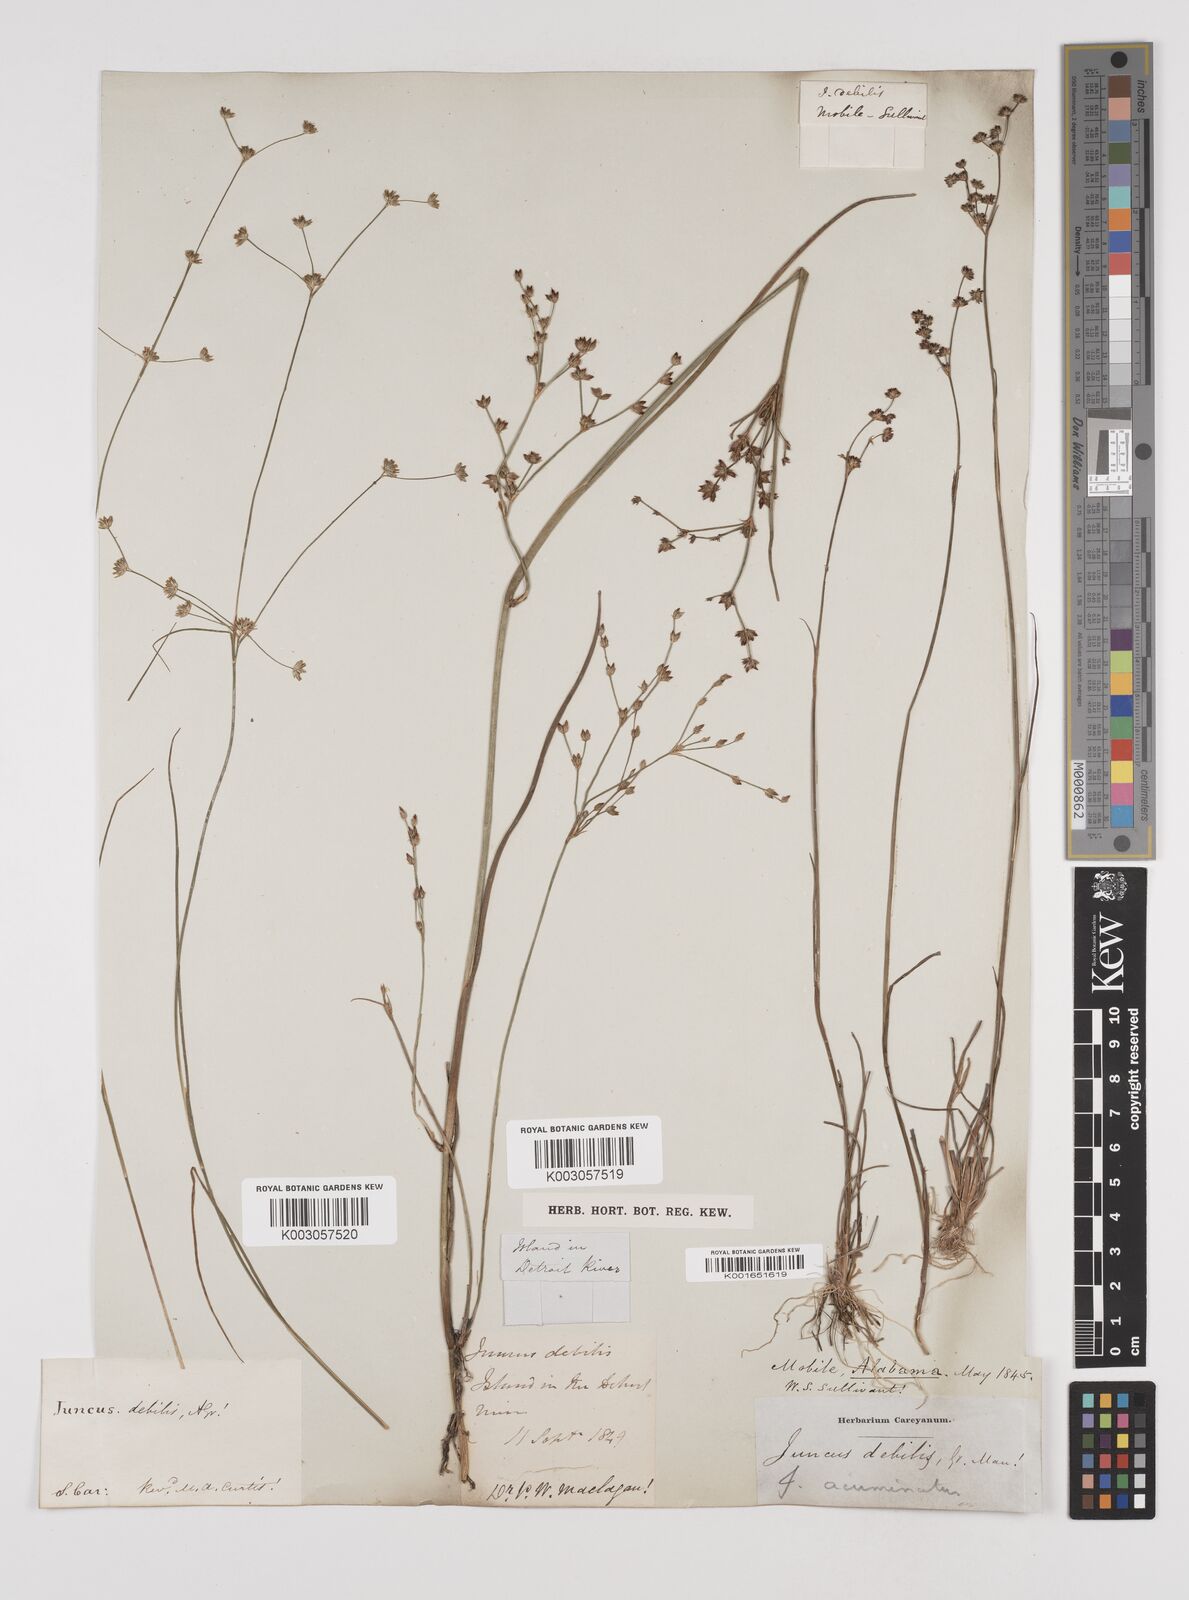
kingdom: Plantae
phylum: Tracheophyta
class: Liliopsida
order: Poales
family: Juncaceae
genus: Juncus
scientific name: Juncus debilis
